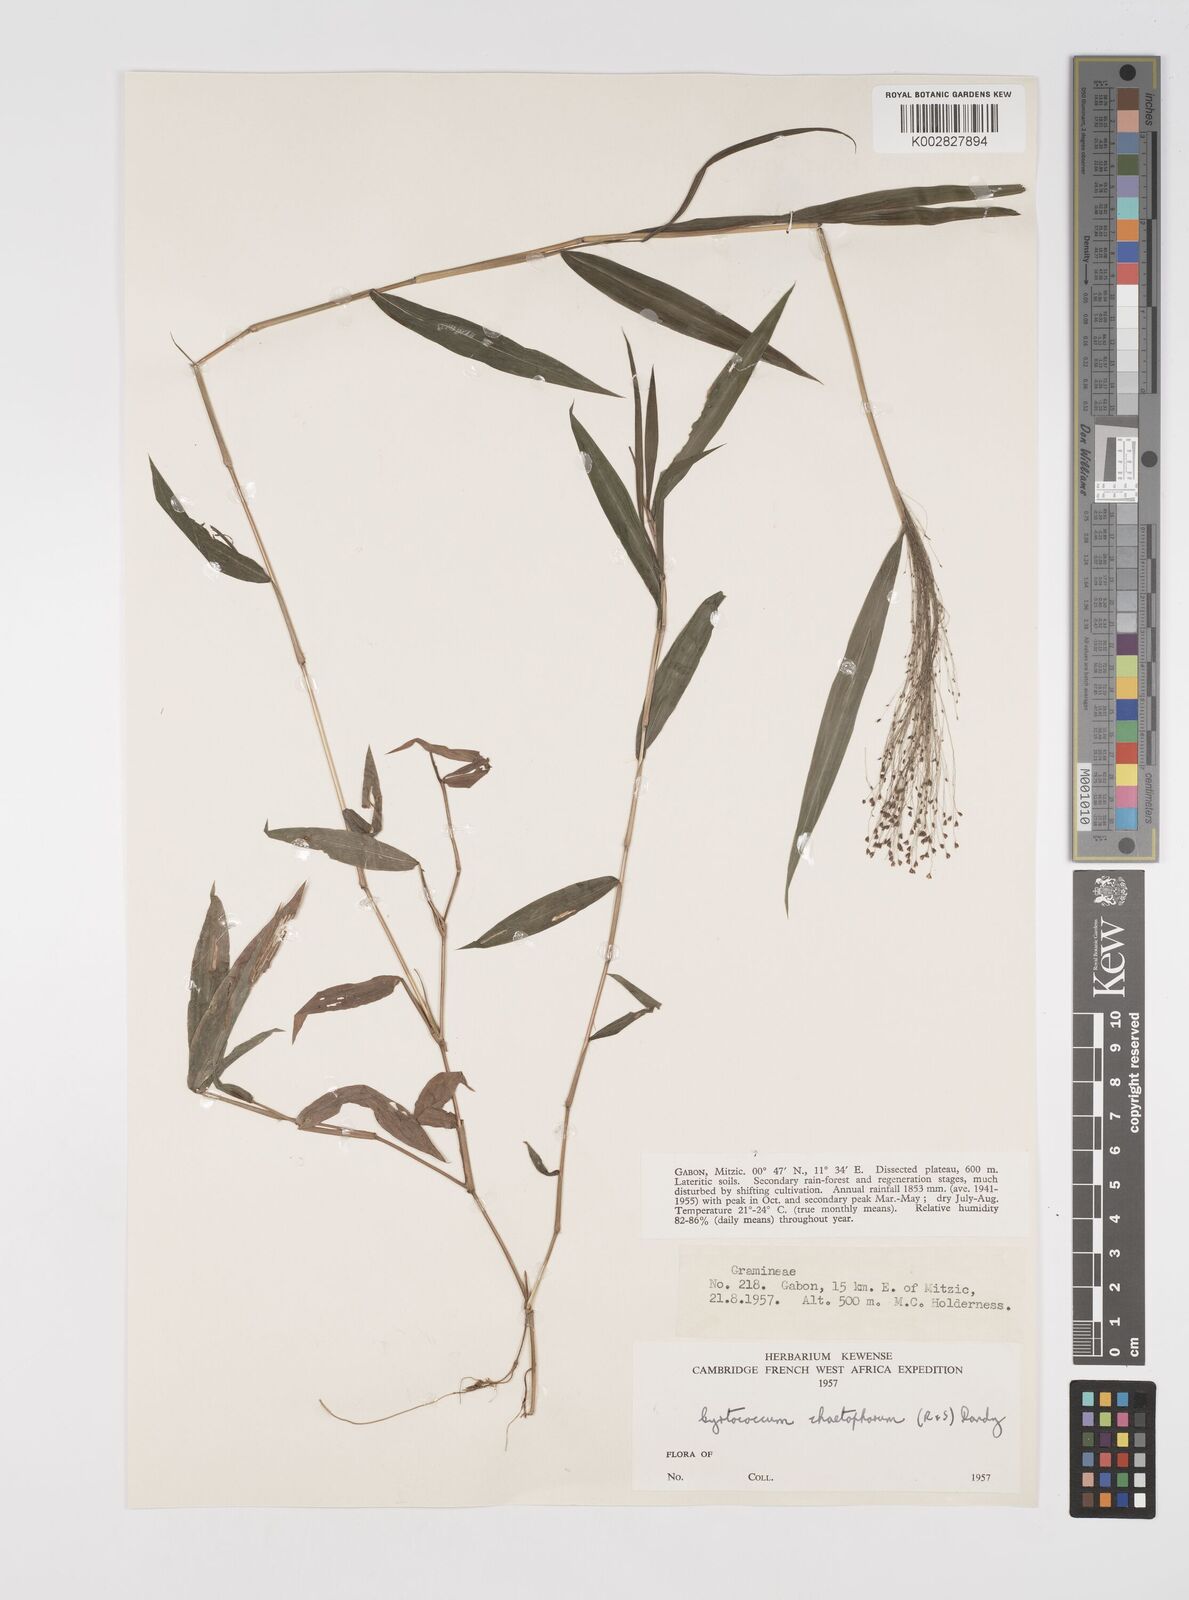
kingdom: Plantae
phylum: Tracheophyta
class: Liliopsida
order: Poales
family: Poaceae
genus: Cyrtococcum
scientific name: Cyrtococcum chaetophoron
